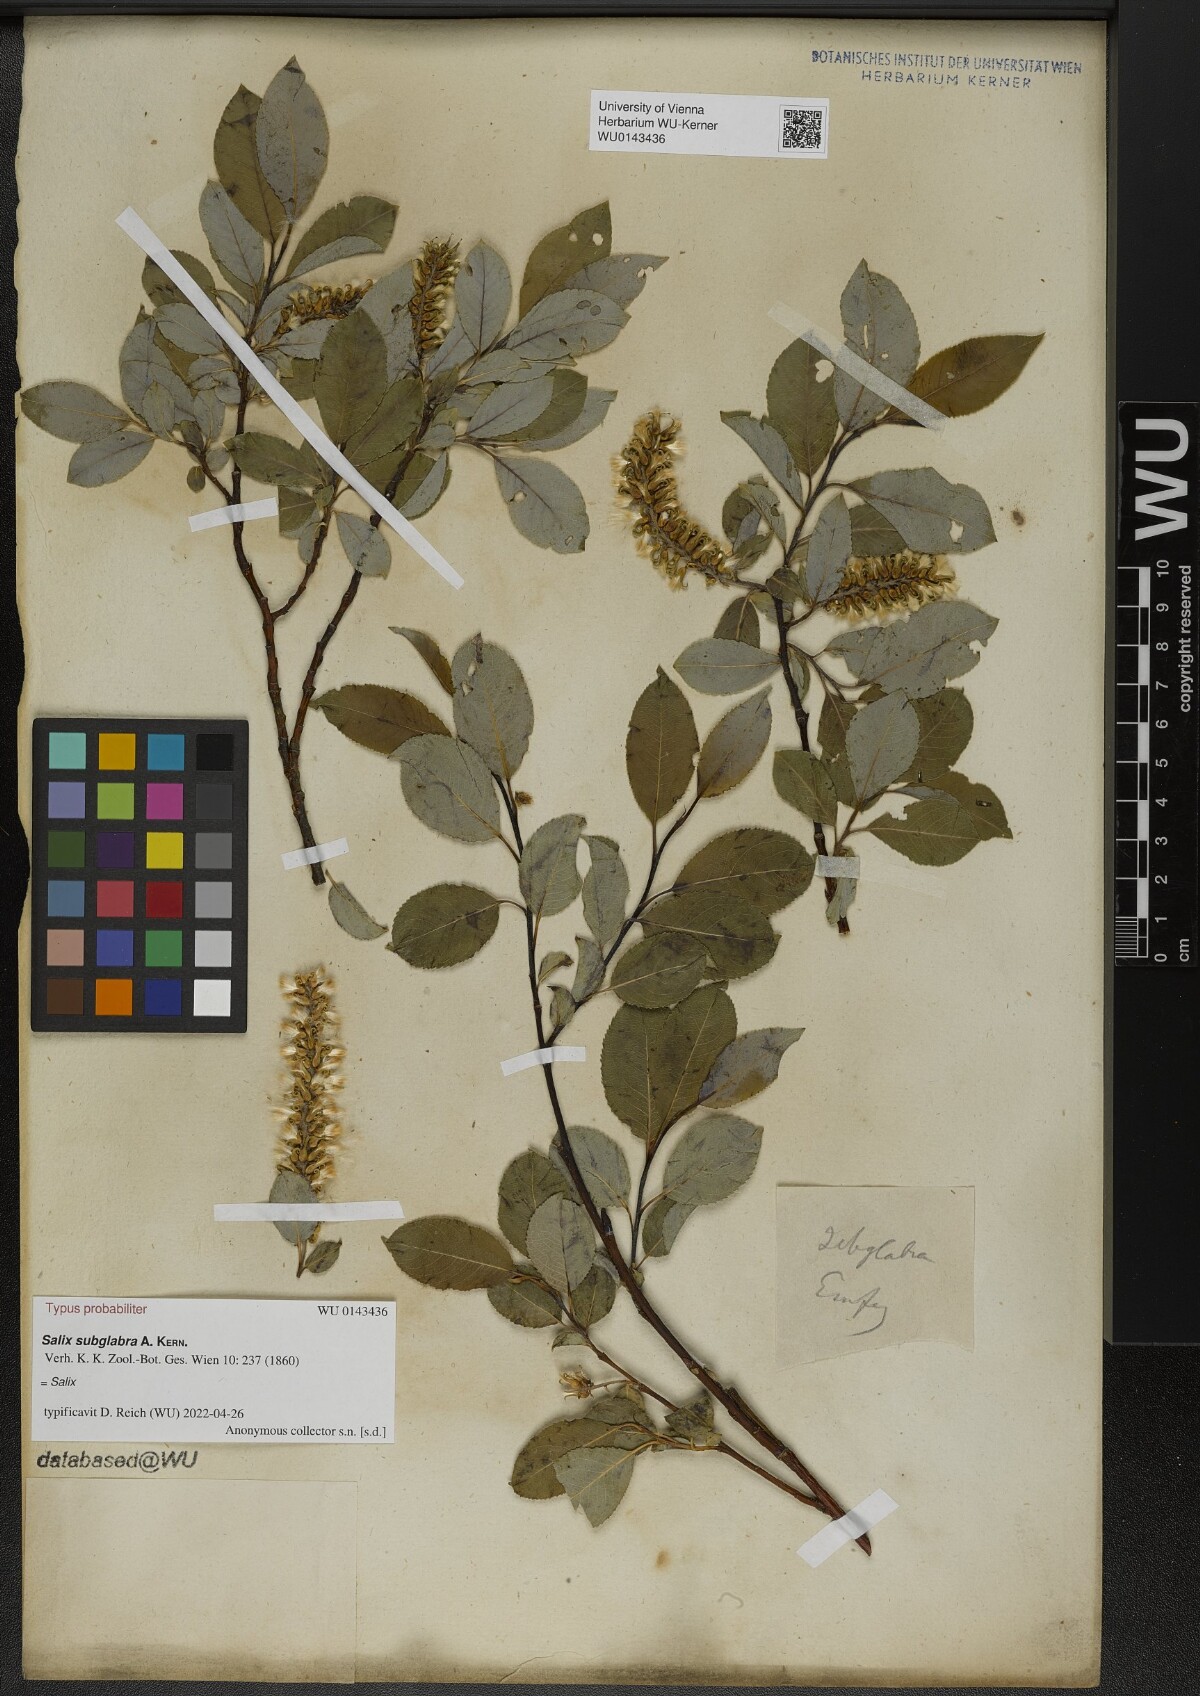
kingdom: Plantae
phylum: Tracheophyta
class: Magnoliopsida
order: Malpighiales
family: Salicaceae
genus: Salix
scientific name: Salix subglabra
